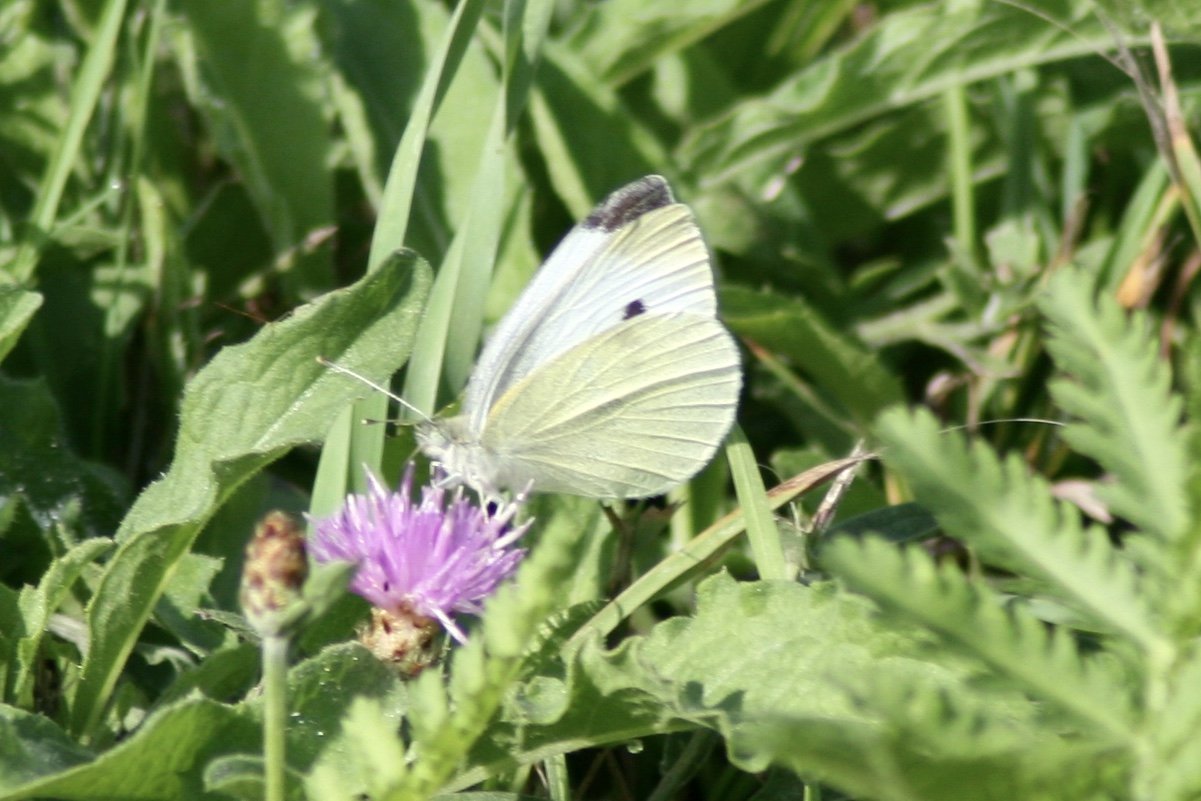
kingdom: Animalia
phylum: Arthropoda
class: Insecta
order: Lepidoptera
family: Pieridae
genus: Pieris
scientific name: Pieris rapae
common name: Cabbage White
